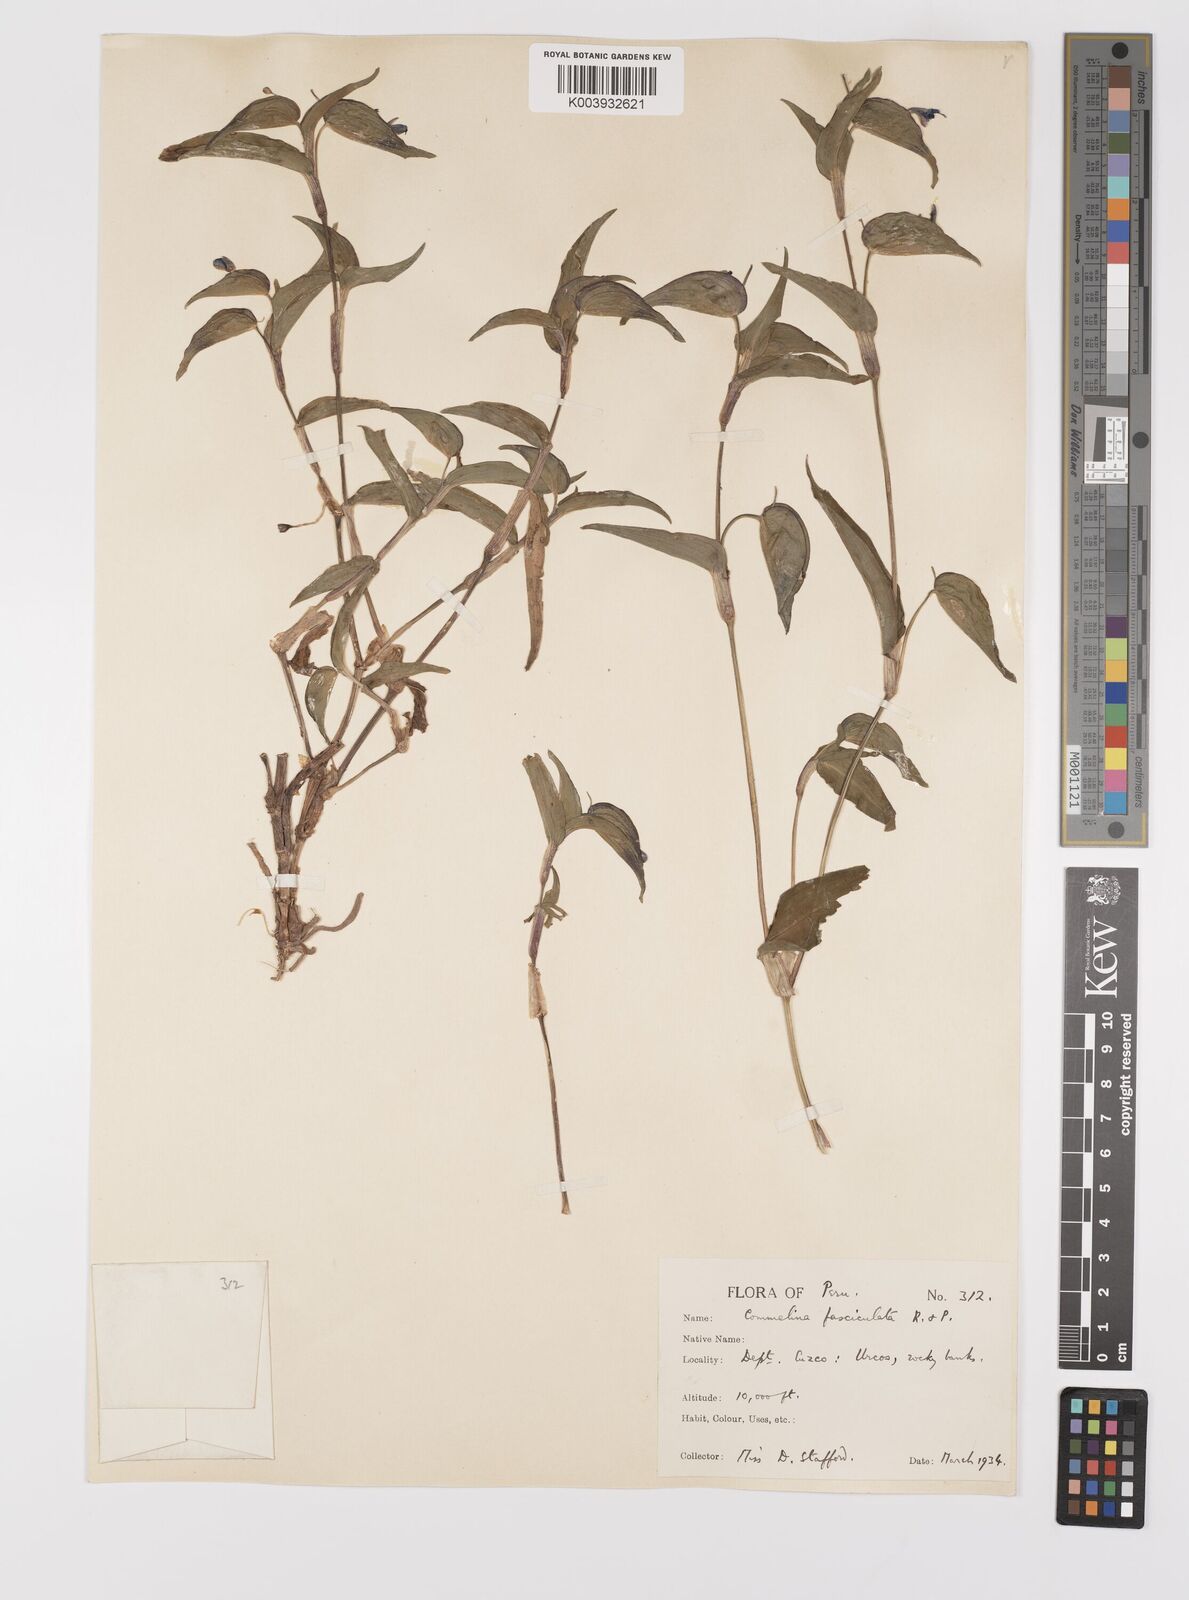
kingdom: Plantae
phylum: Tracheophyta
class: Liliopsida
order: Commelinales
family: Commelinaceae
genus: Commelina
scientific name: Commelina tuberosa
